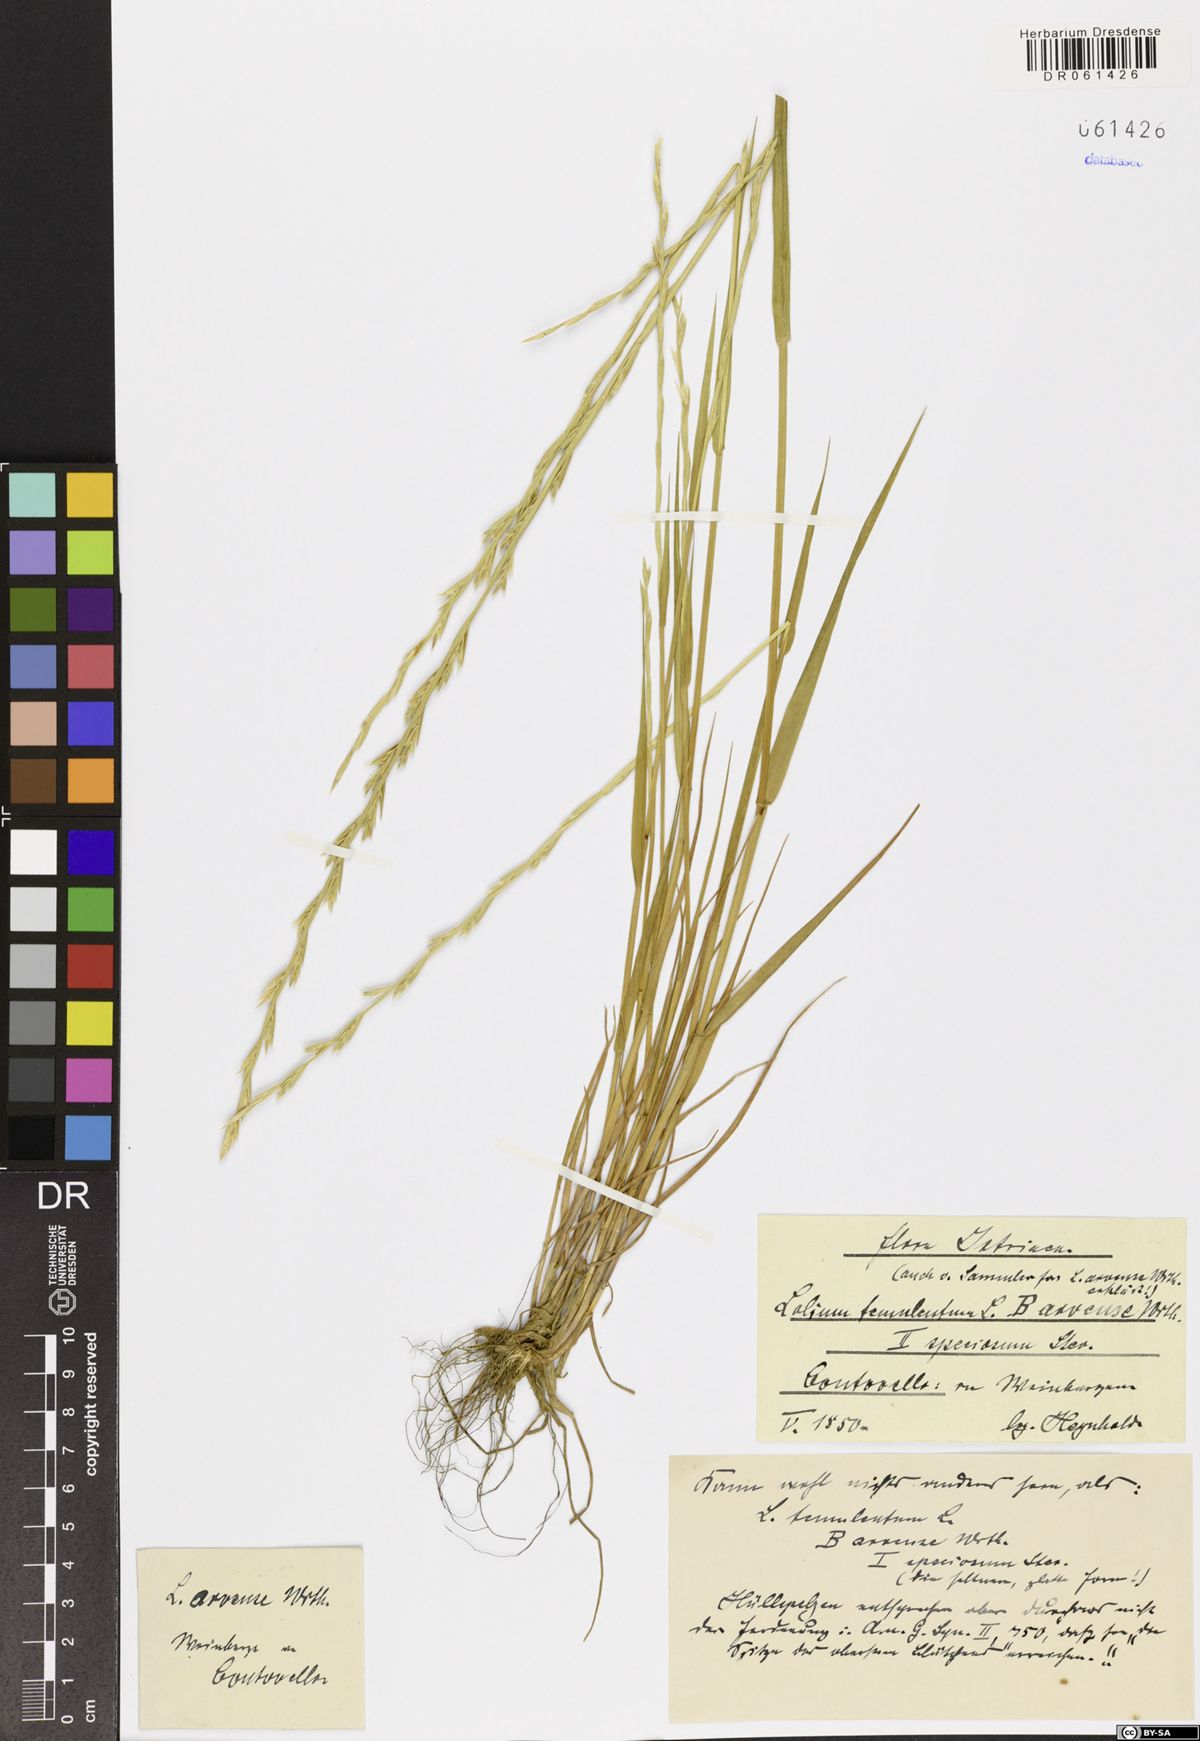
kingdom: Plantae
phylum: Tracheophyta
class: Liliopsida
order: Poales
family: Poaceae
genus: Lolium
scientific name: Lolium temulentum
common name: Darnel
